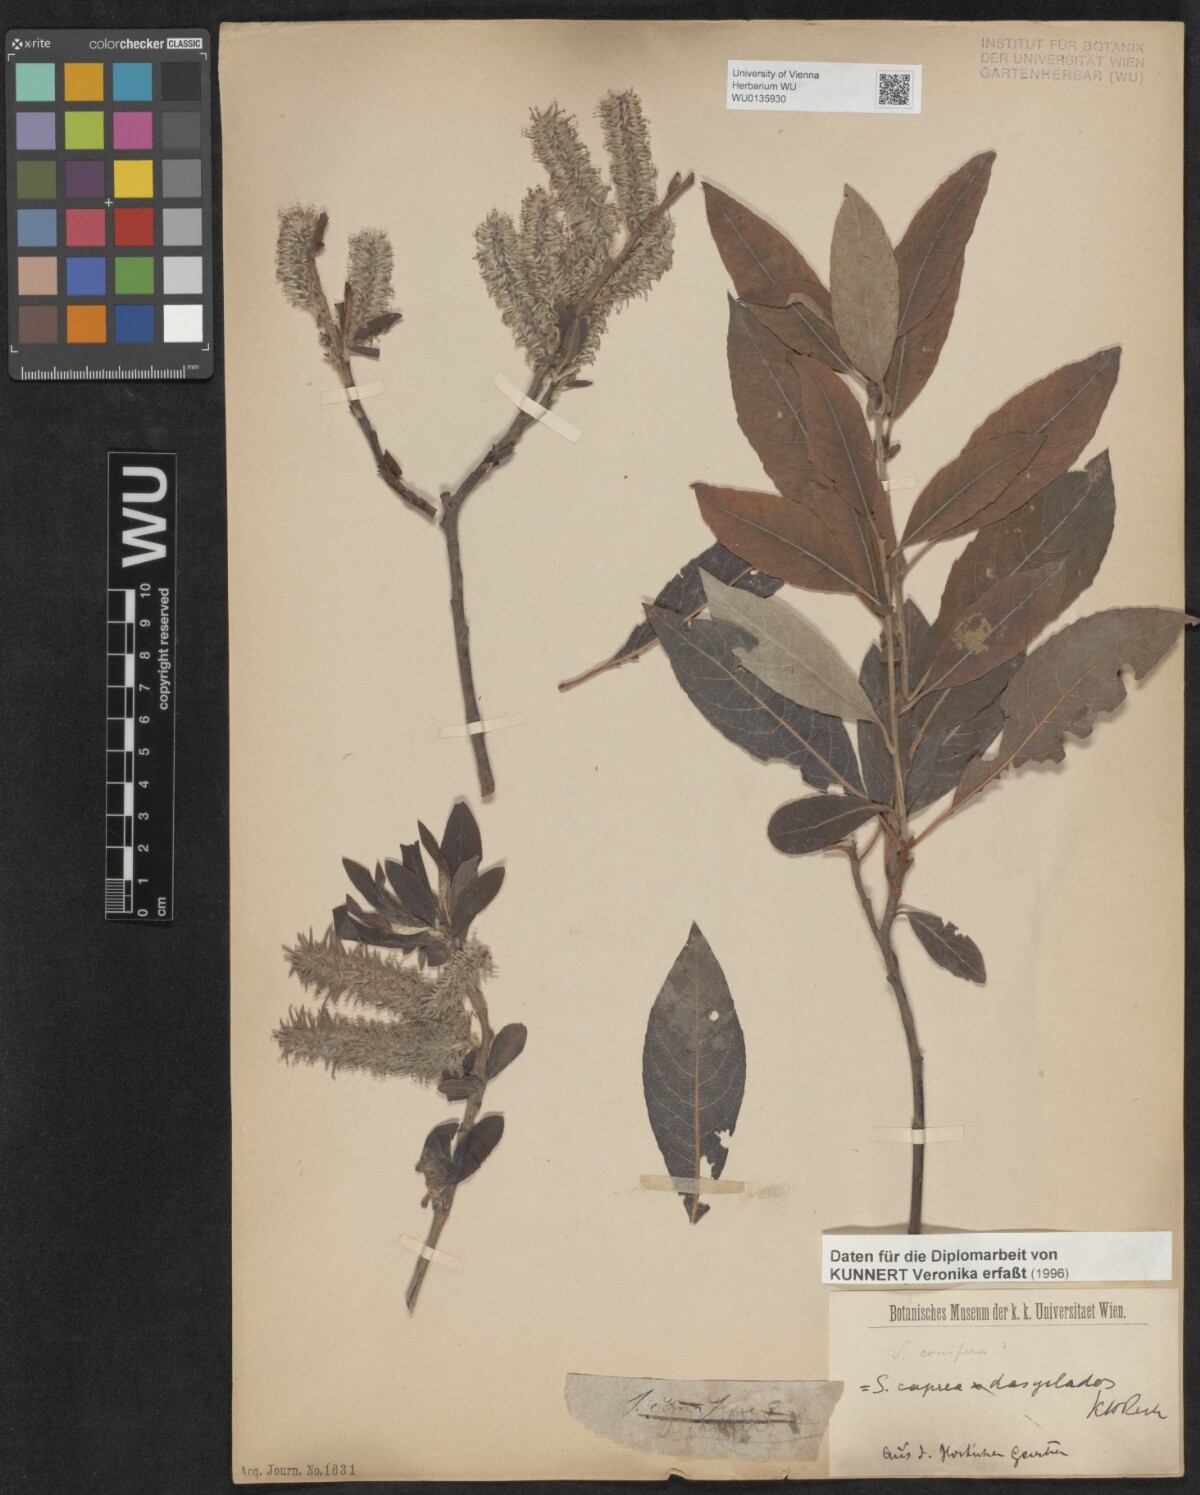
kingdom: Plantae
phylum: Tracheophyta
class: Magnoliopsida
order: Malpighiales
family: Salicaceae
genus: Salix
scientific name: Salix conifera
